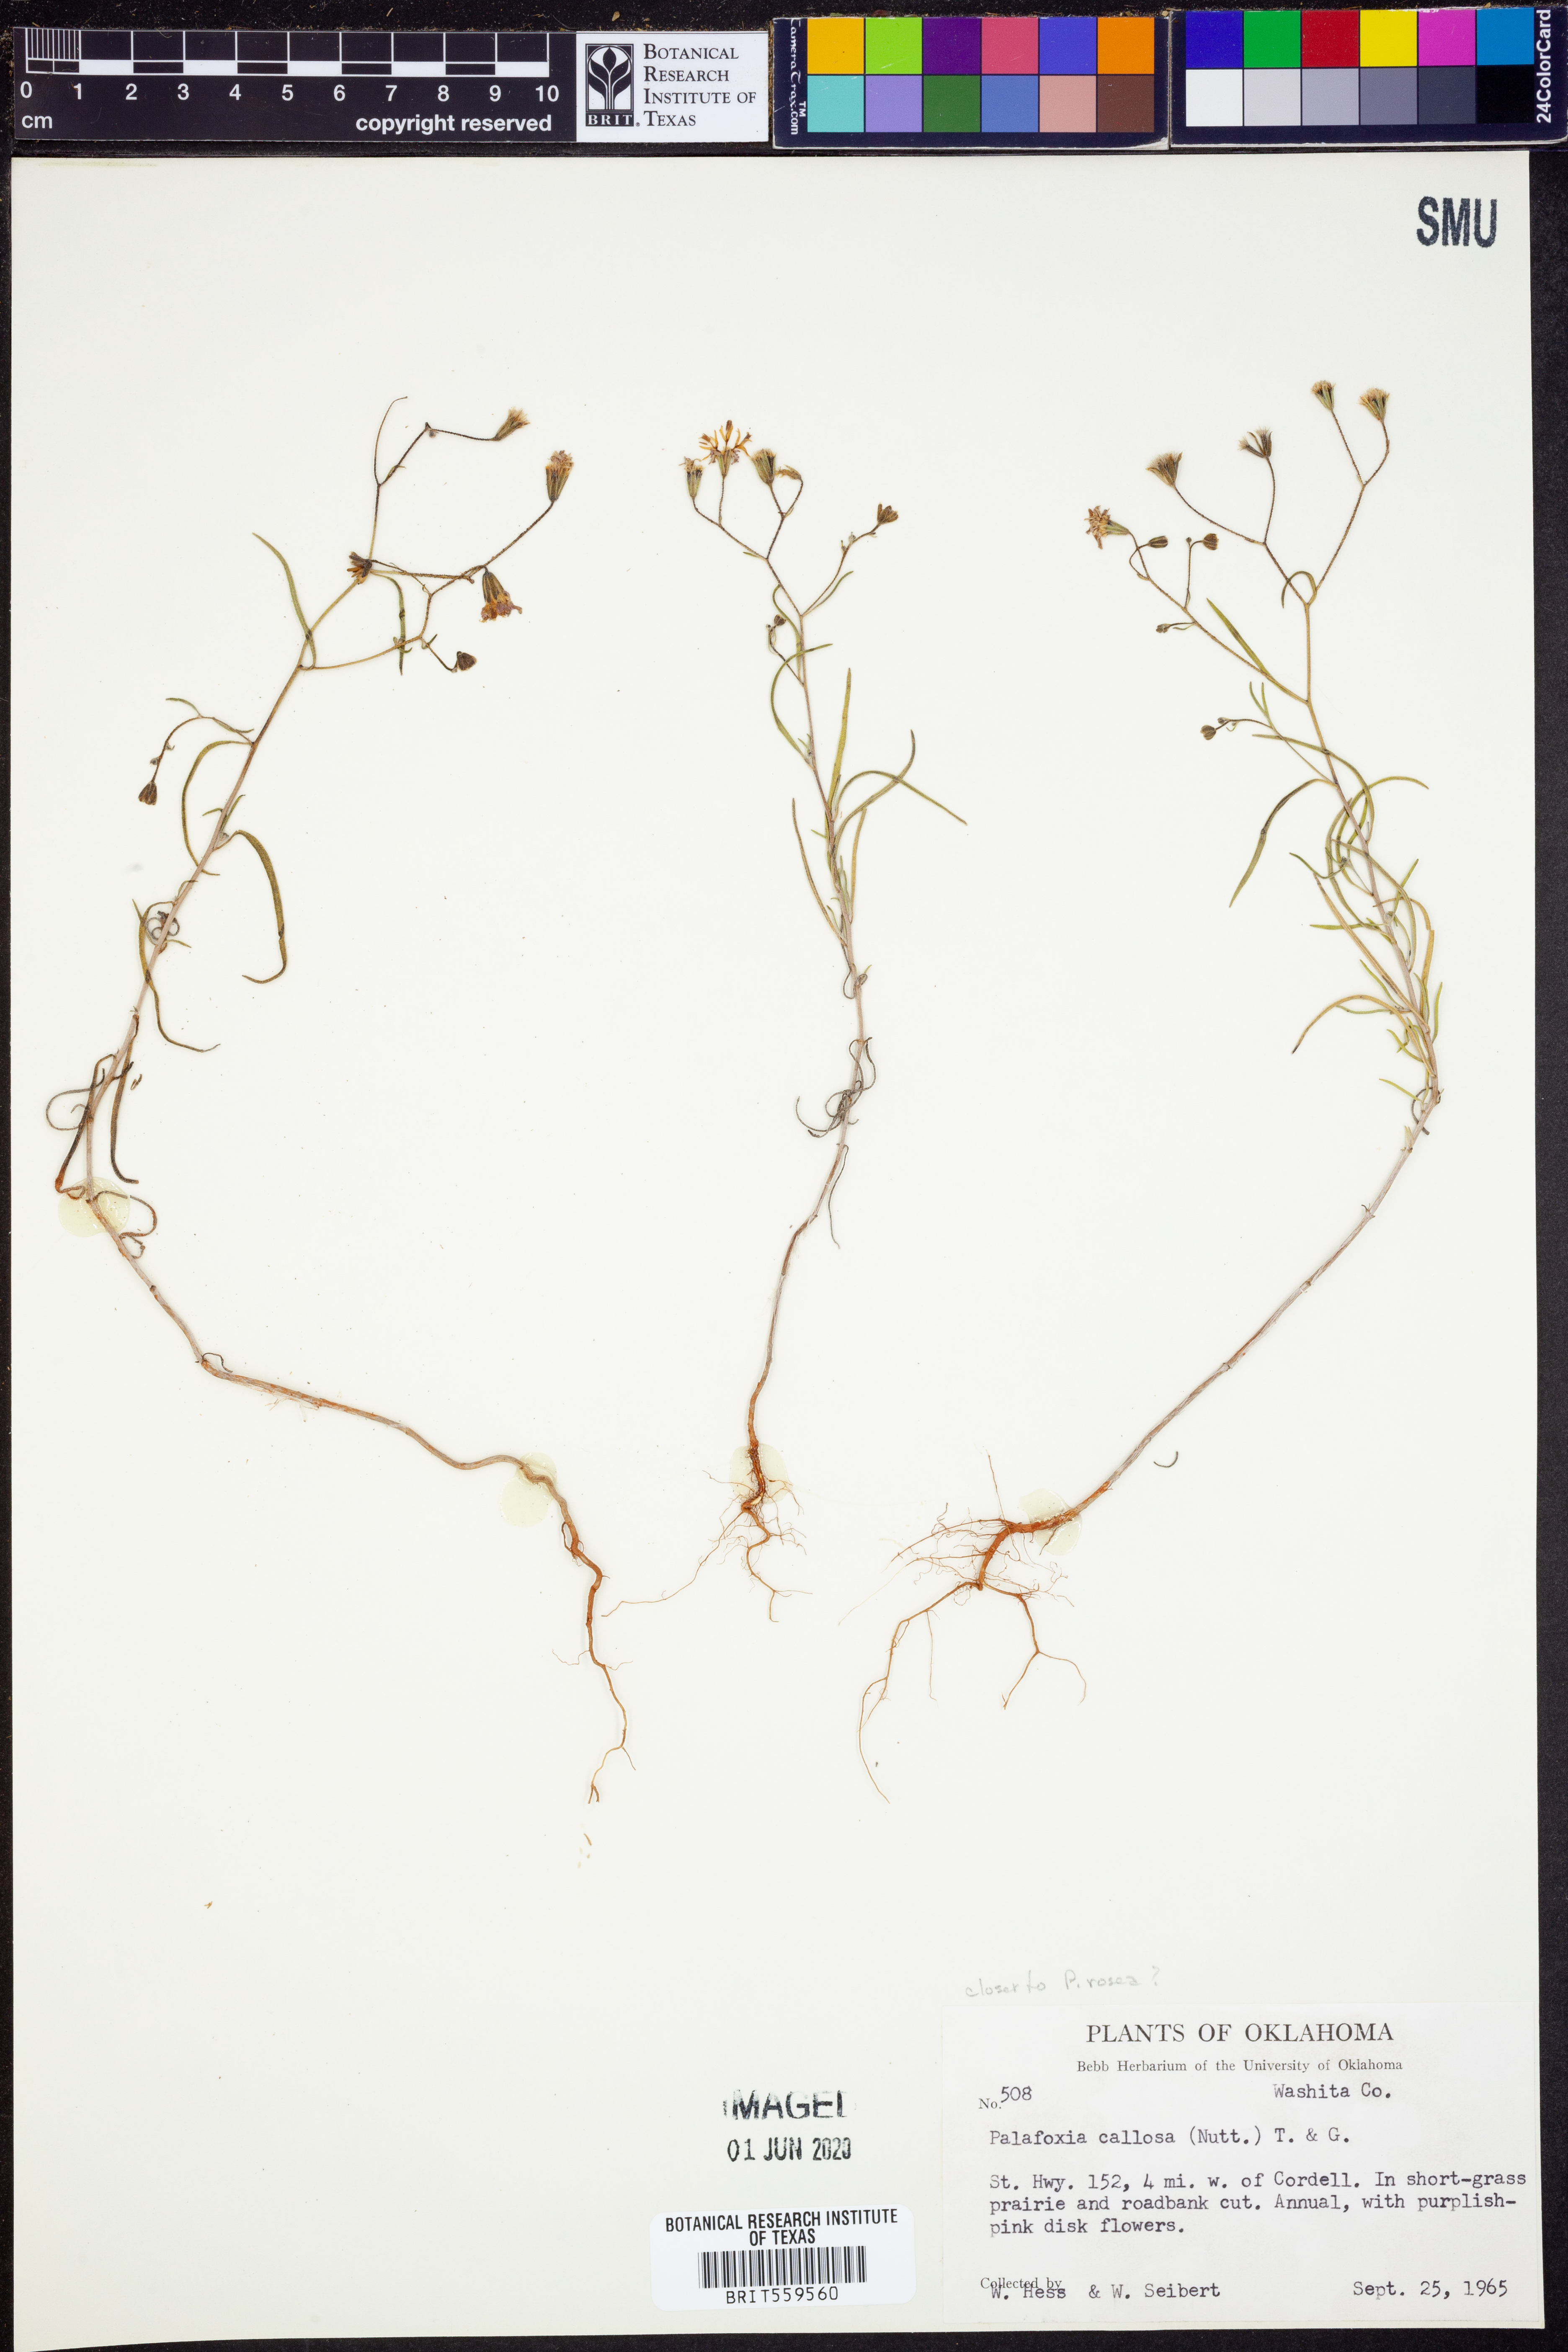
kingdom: Plantae
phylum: Tracheophyta
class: Magnoliopsida
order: Asterales
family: Asteraceae
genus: Palafoxia
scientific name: Palafoxia callosa
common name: Small palafox
